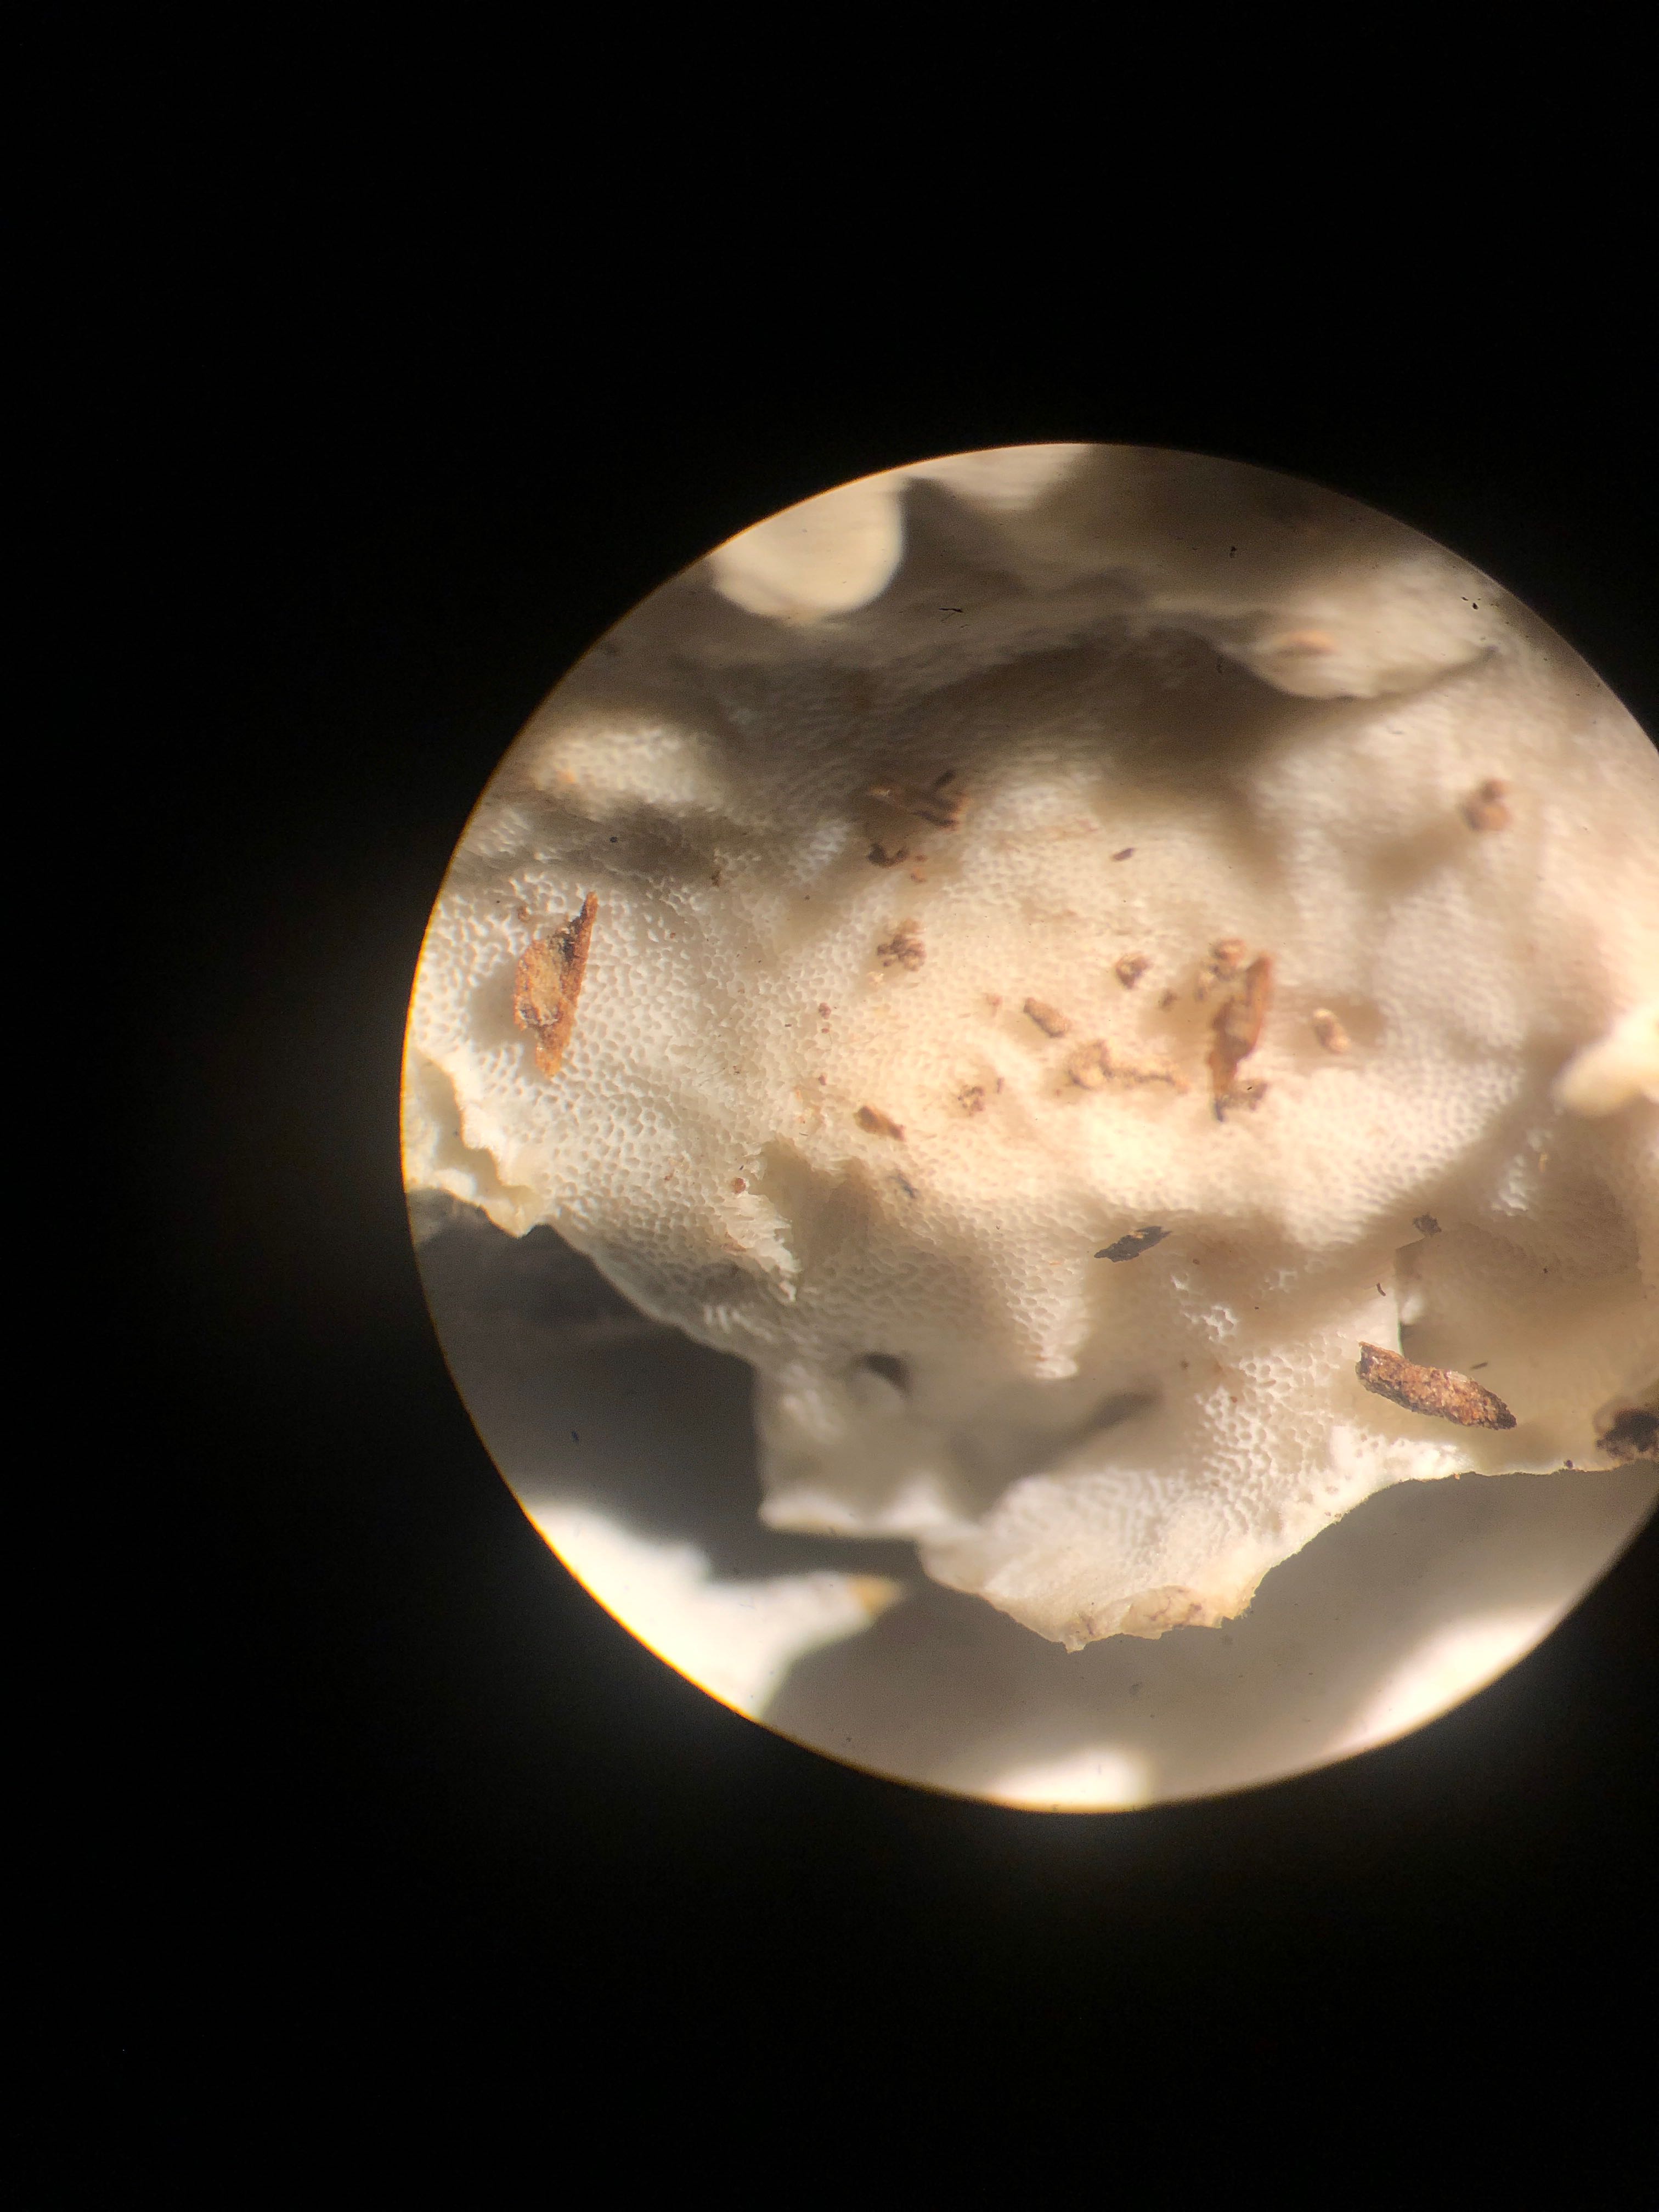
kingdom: Fungi
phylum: Basidiomycota
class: Agaricomycetes
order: Polyporales
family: Steccherinaceae
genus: Antrodiella
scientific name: Antrodiella faginea
